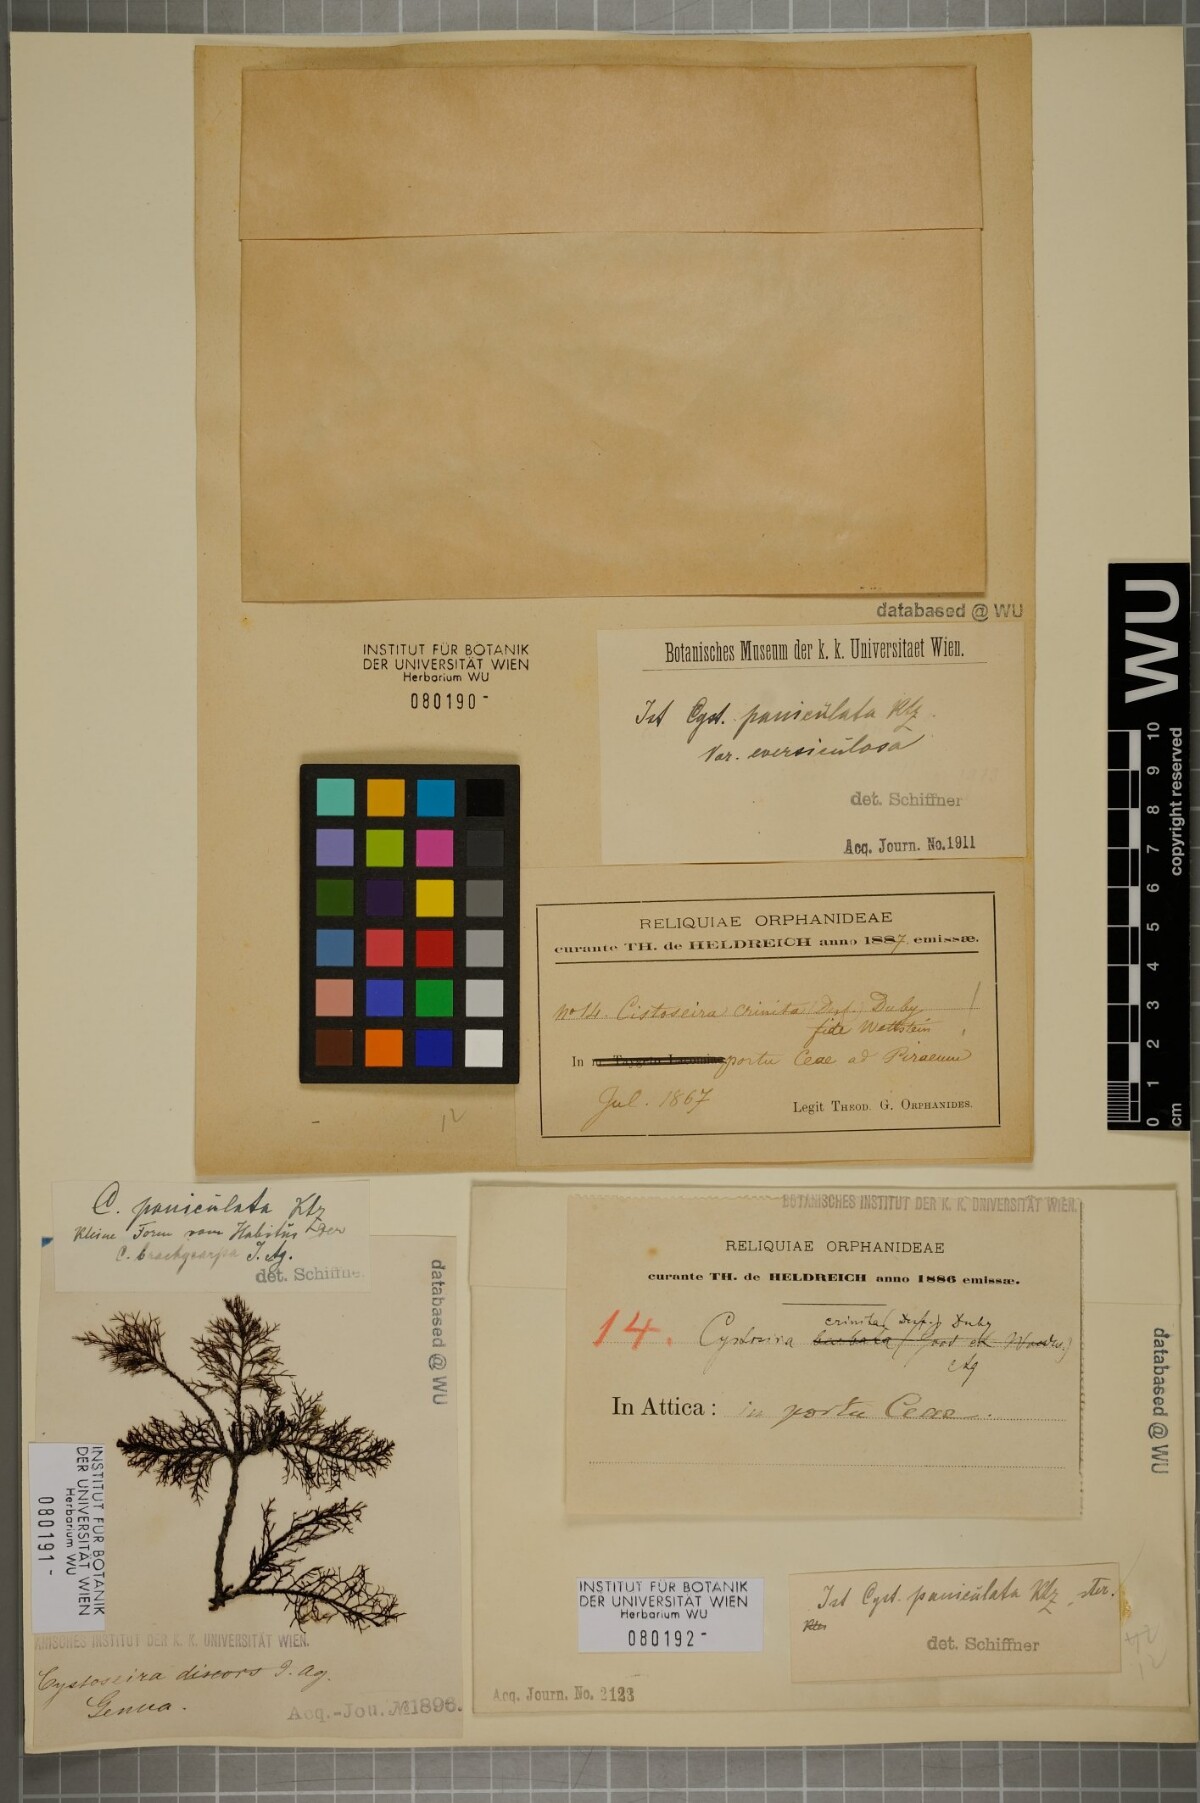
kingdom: Chromista
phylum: Ochrophyta
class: Phaeophyceae
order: Fucales
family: Sargassaceae
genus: Cystoseira
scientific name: Cystoseira
